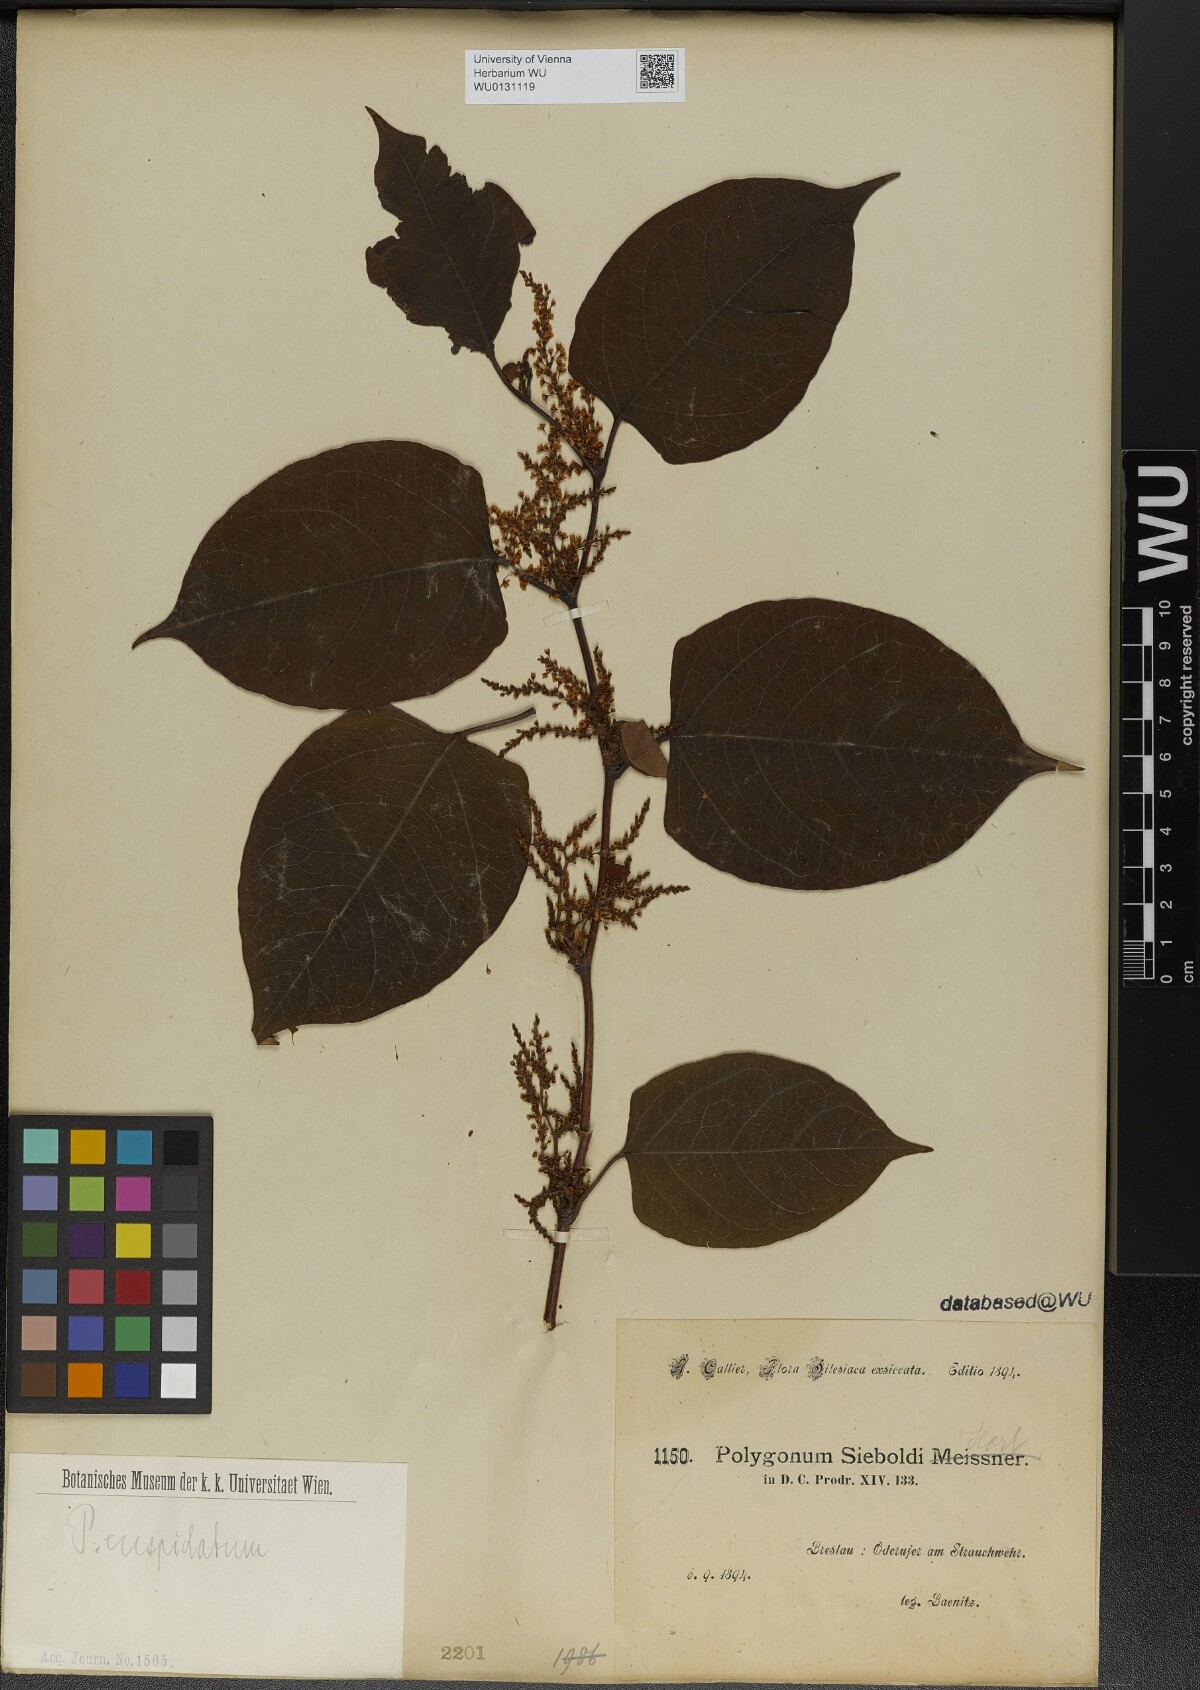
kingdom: Plantae
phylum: Tracheophyta
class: Magnoliopsida
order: Caryophyllales
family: Polygonaceae
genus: Reynoutria
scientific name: Reynoutria japonica
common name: Japanese knotweed
